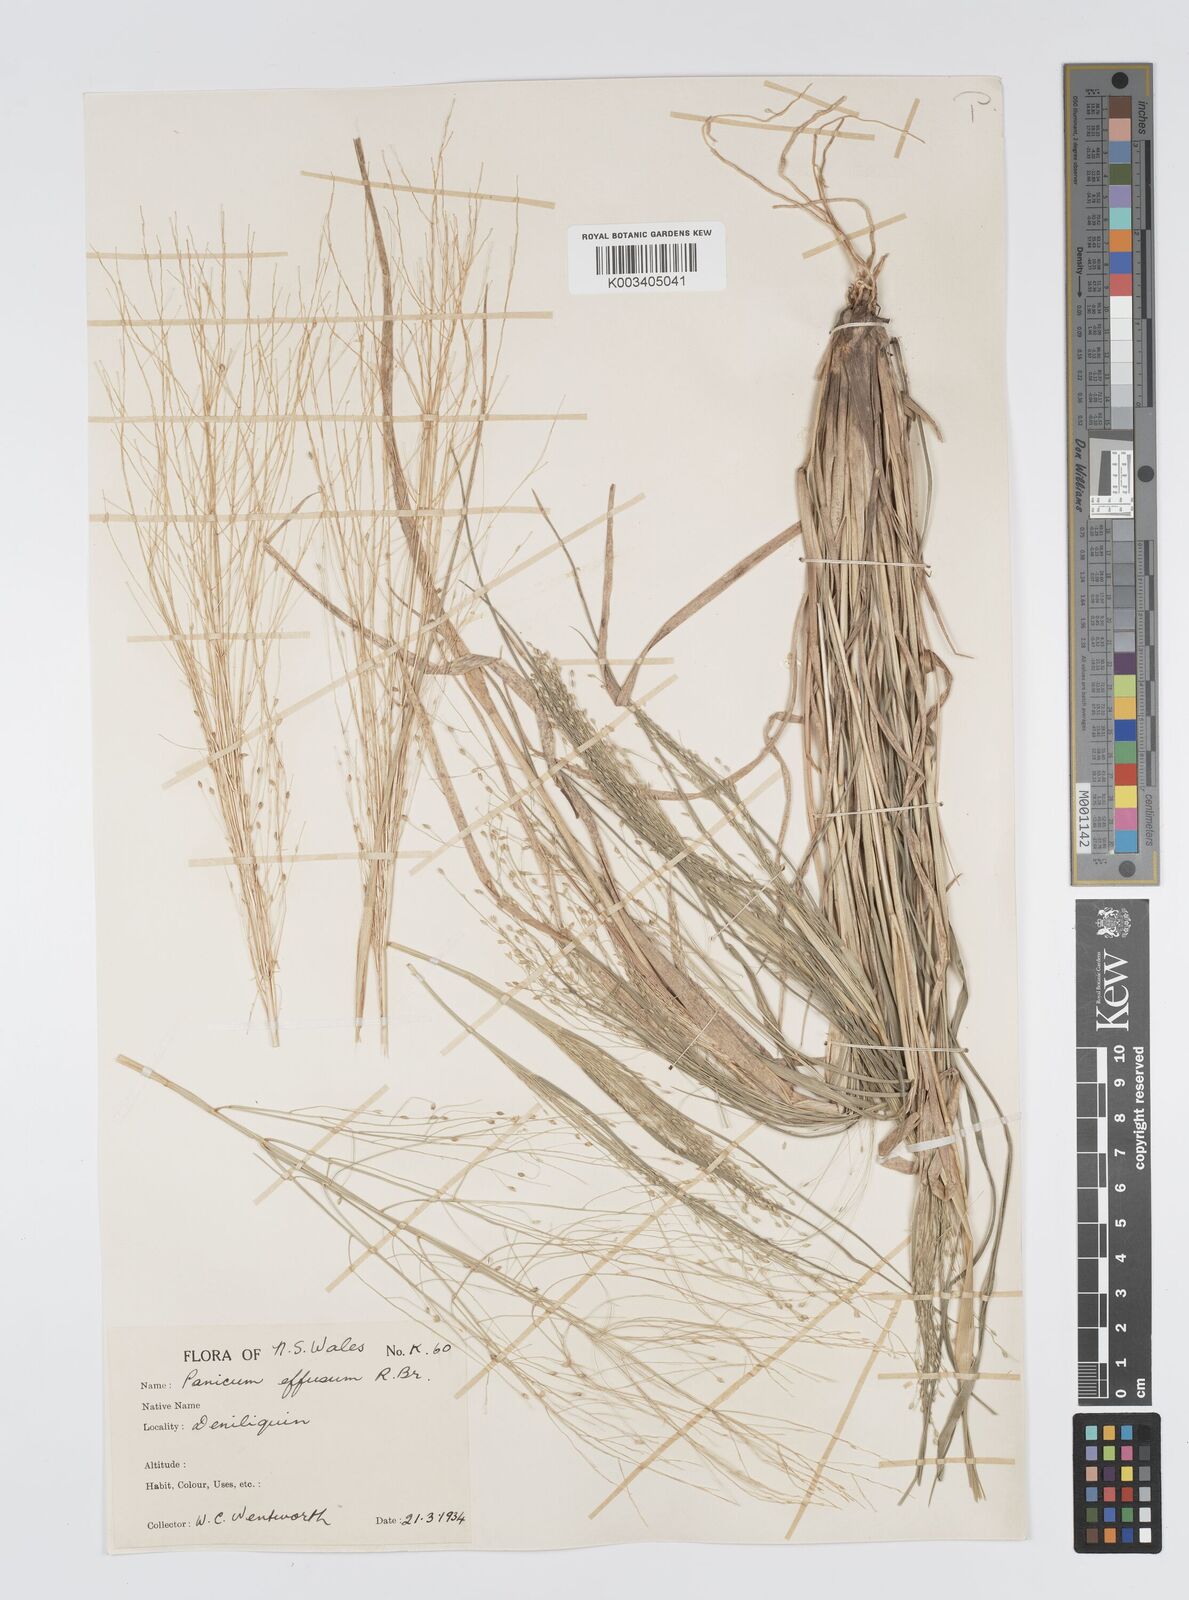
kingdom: Plantae
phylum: Tracheophyta
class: Liliopsida
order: Poales
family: Poaceae
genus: Panicum
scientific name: Panicum effusum
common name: Hairy panic grass
